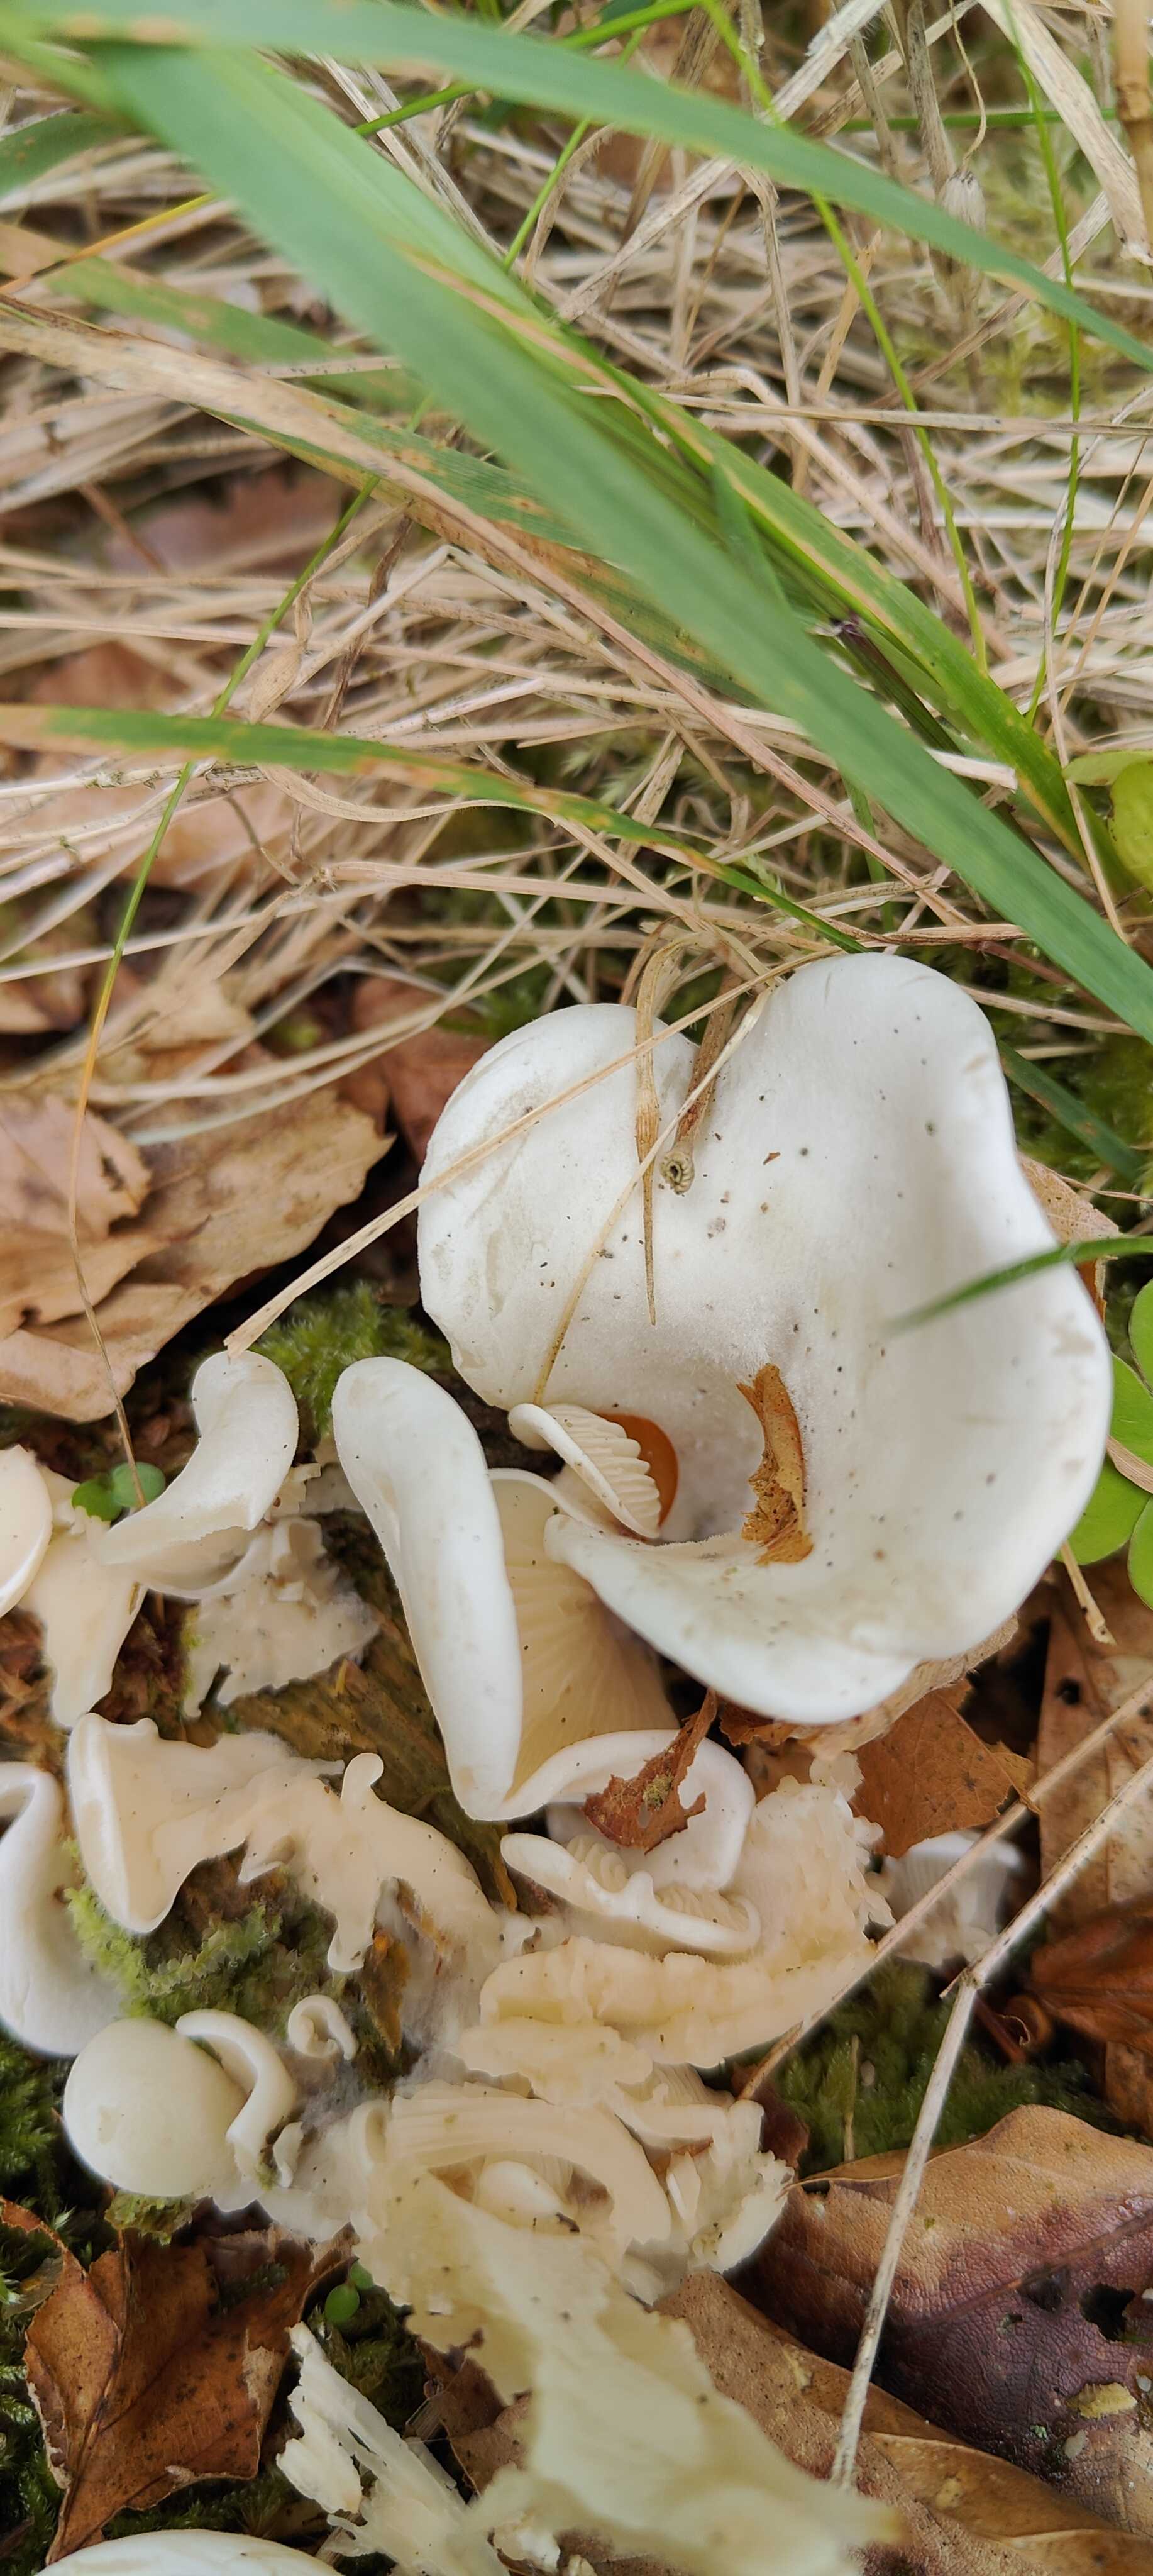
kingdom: Fungi
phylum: Basidiomycota
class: Agaricomycetes
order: Agaricales
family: Marasmiaceae
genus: Pleurocybella
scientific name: Pleurocybella porrigens
